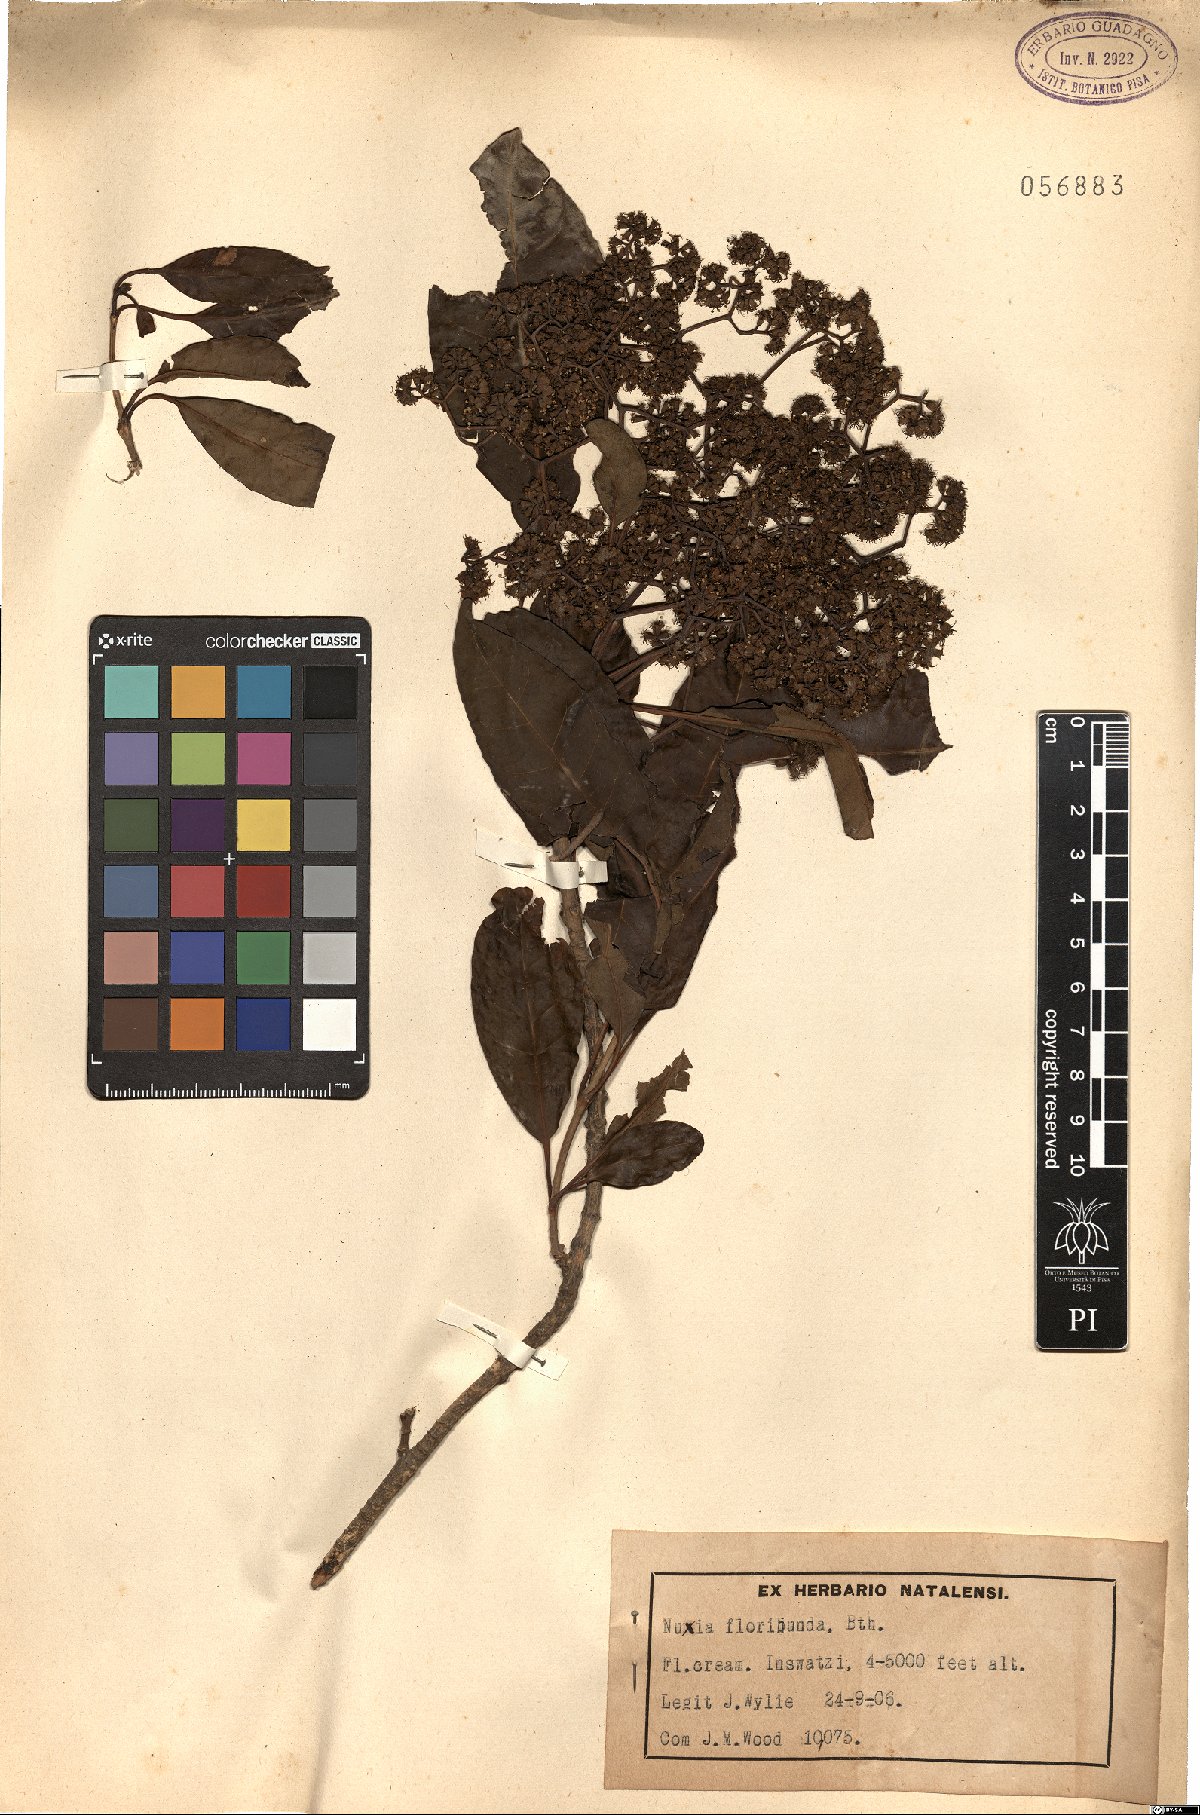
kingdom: Plantae
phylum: Tracheophyta
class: Magnoliopsida
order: Lamiales
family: Stilbaceae
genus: Nuxia
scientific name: Nuxia floribunda
